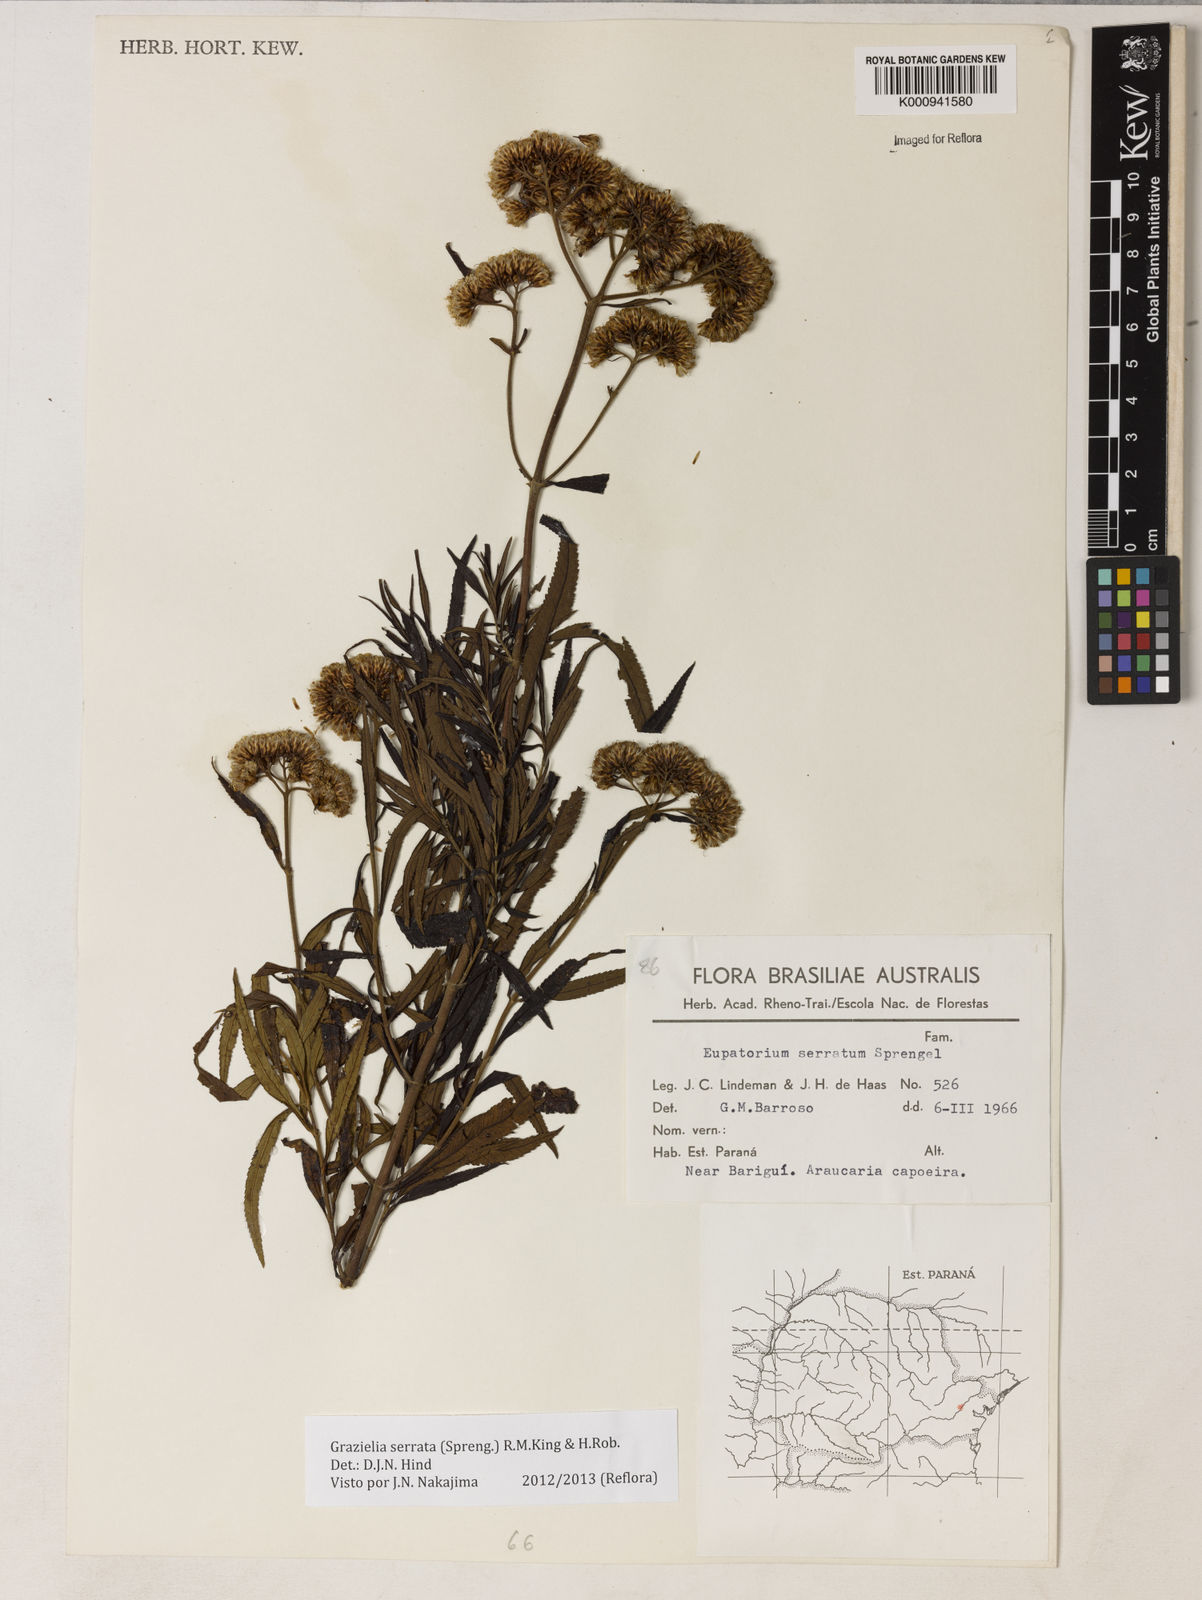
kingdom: Plantae
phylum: Tracheophyta
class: Magnoliopsida
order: Asterales
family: Asteraceae
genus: Grazielia
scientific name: Grazielia serrata
